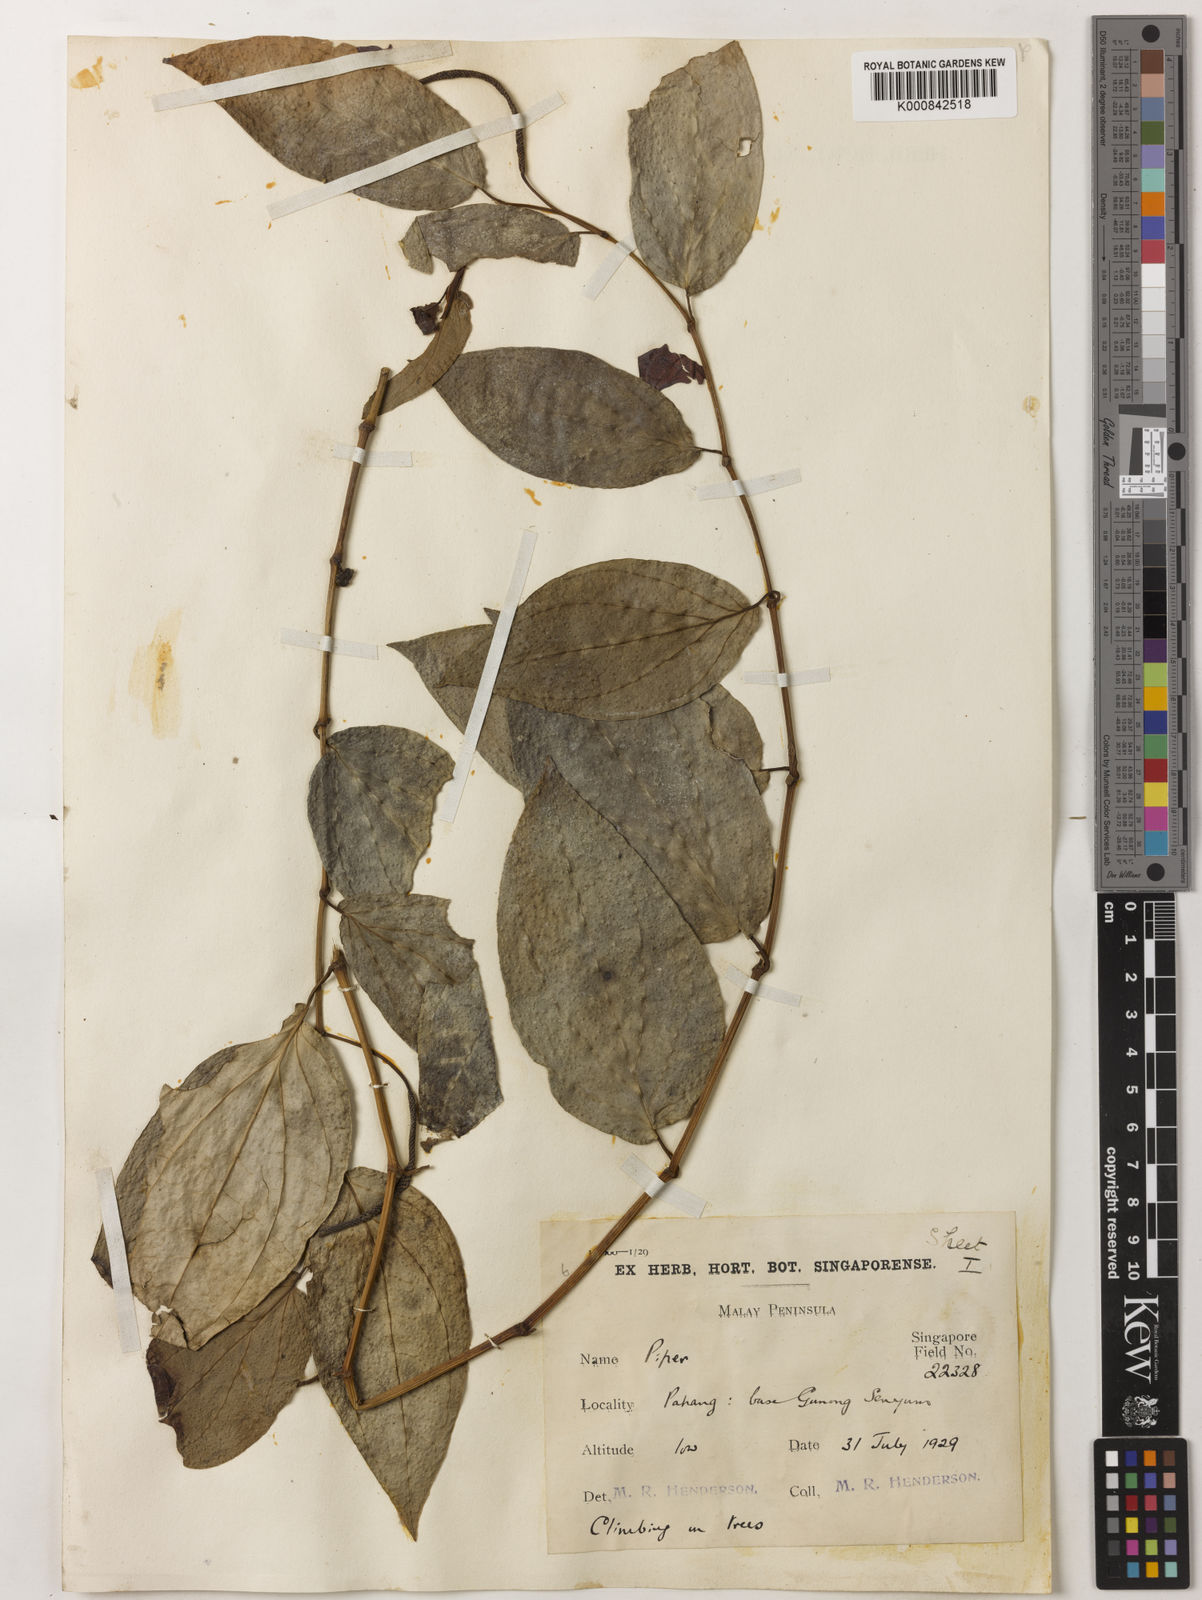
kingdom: Plantae
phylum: Tracheophyta
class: Magnoliopsida
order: Piperales
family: Piperaceae
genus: Piper
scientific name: Piper
